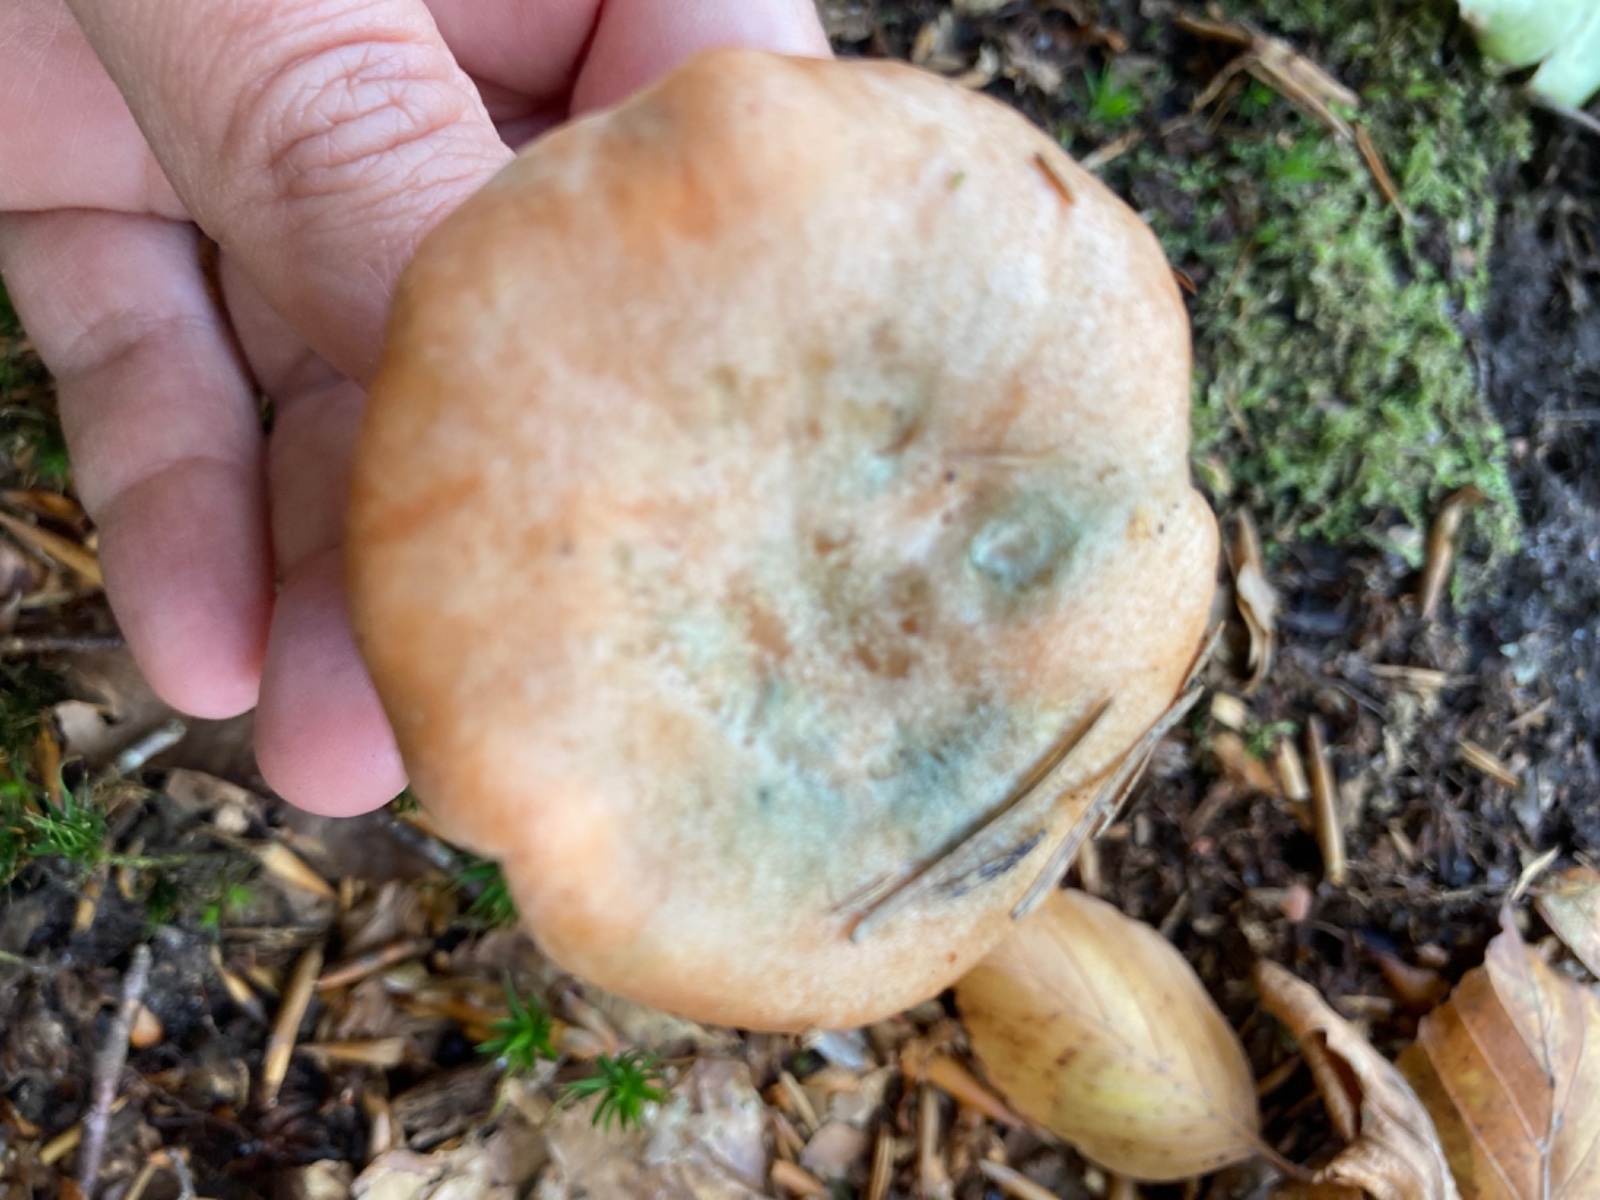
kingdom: Fungi
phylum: Basidiomycota
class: Agaricomycetes
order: Russulales
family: Russulaceae
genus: Lactarius
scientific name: Lactarius deterrimus
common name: gran-mælkehat
